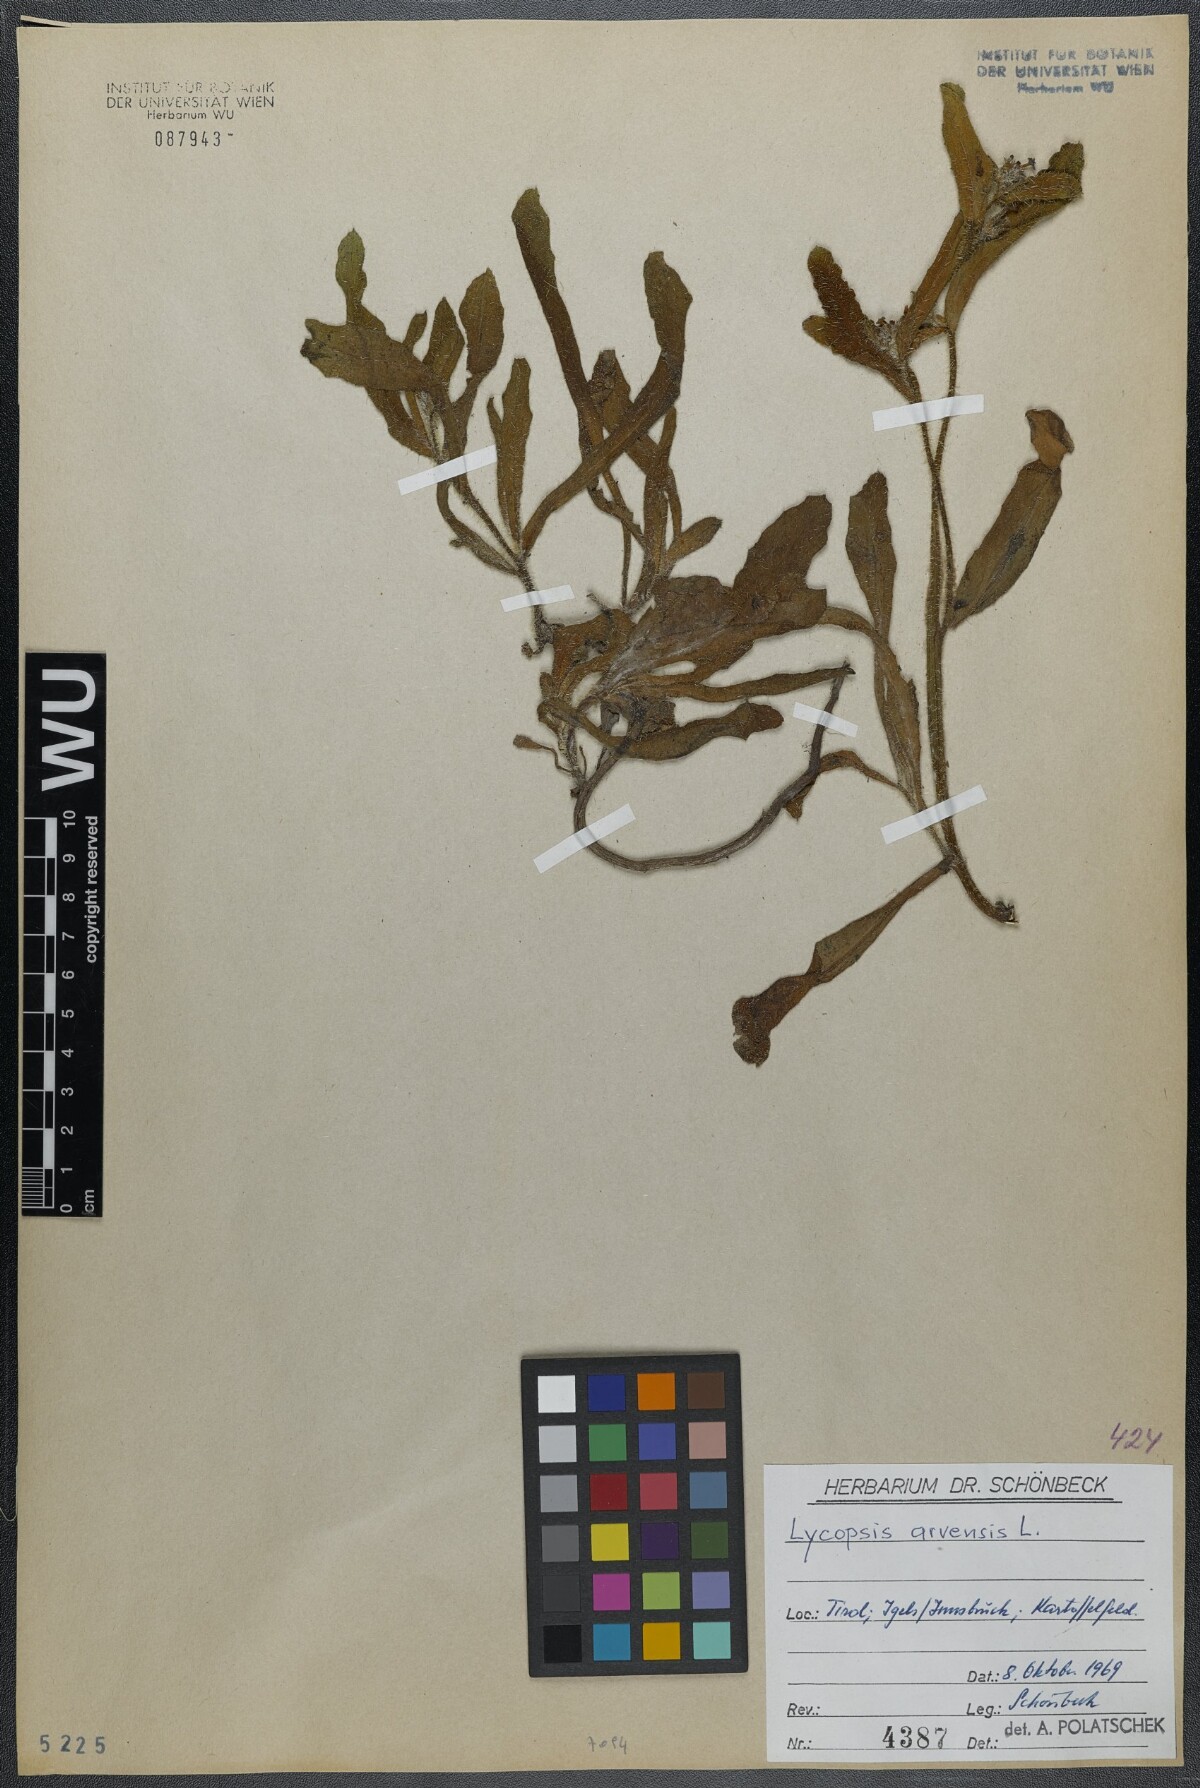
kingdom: Plantae
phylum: Tracheophyta
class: Magnoliopsida
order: Boraginales
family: Boraginaceae
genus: Lycopsis
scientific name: Lycopsis arvensis
